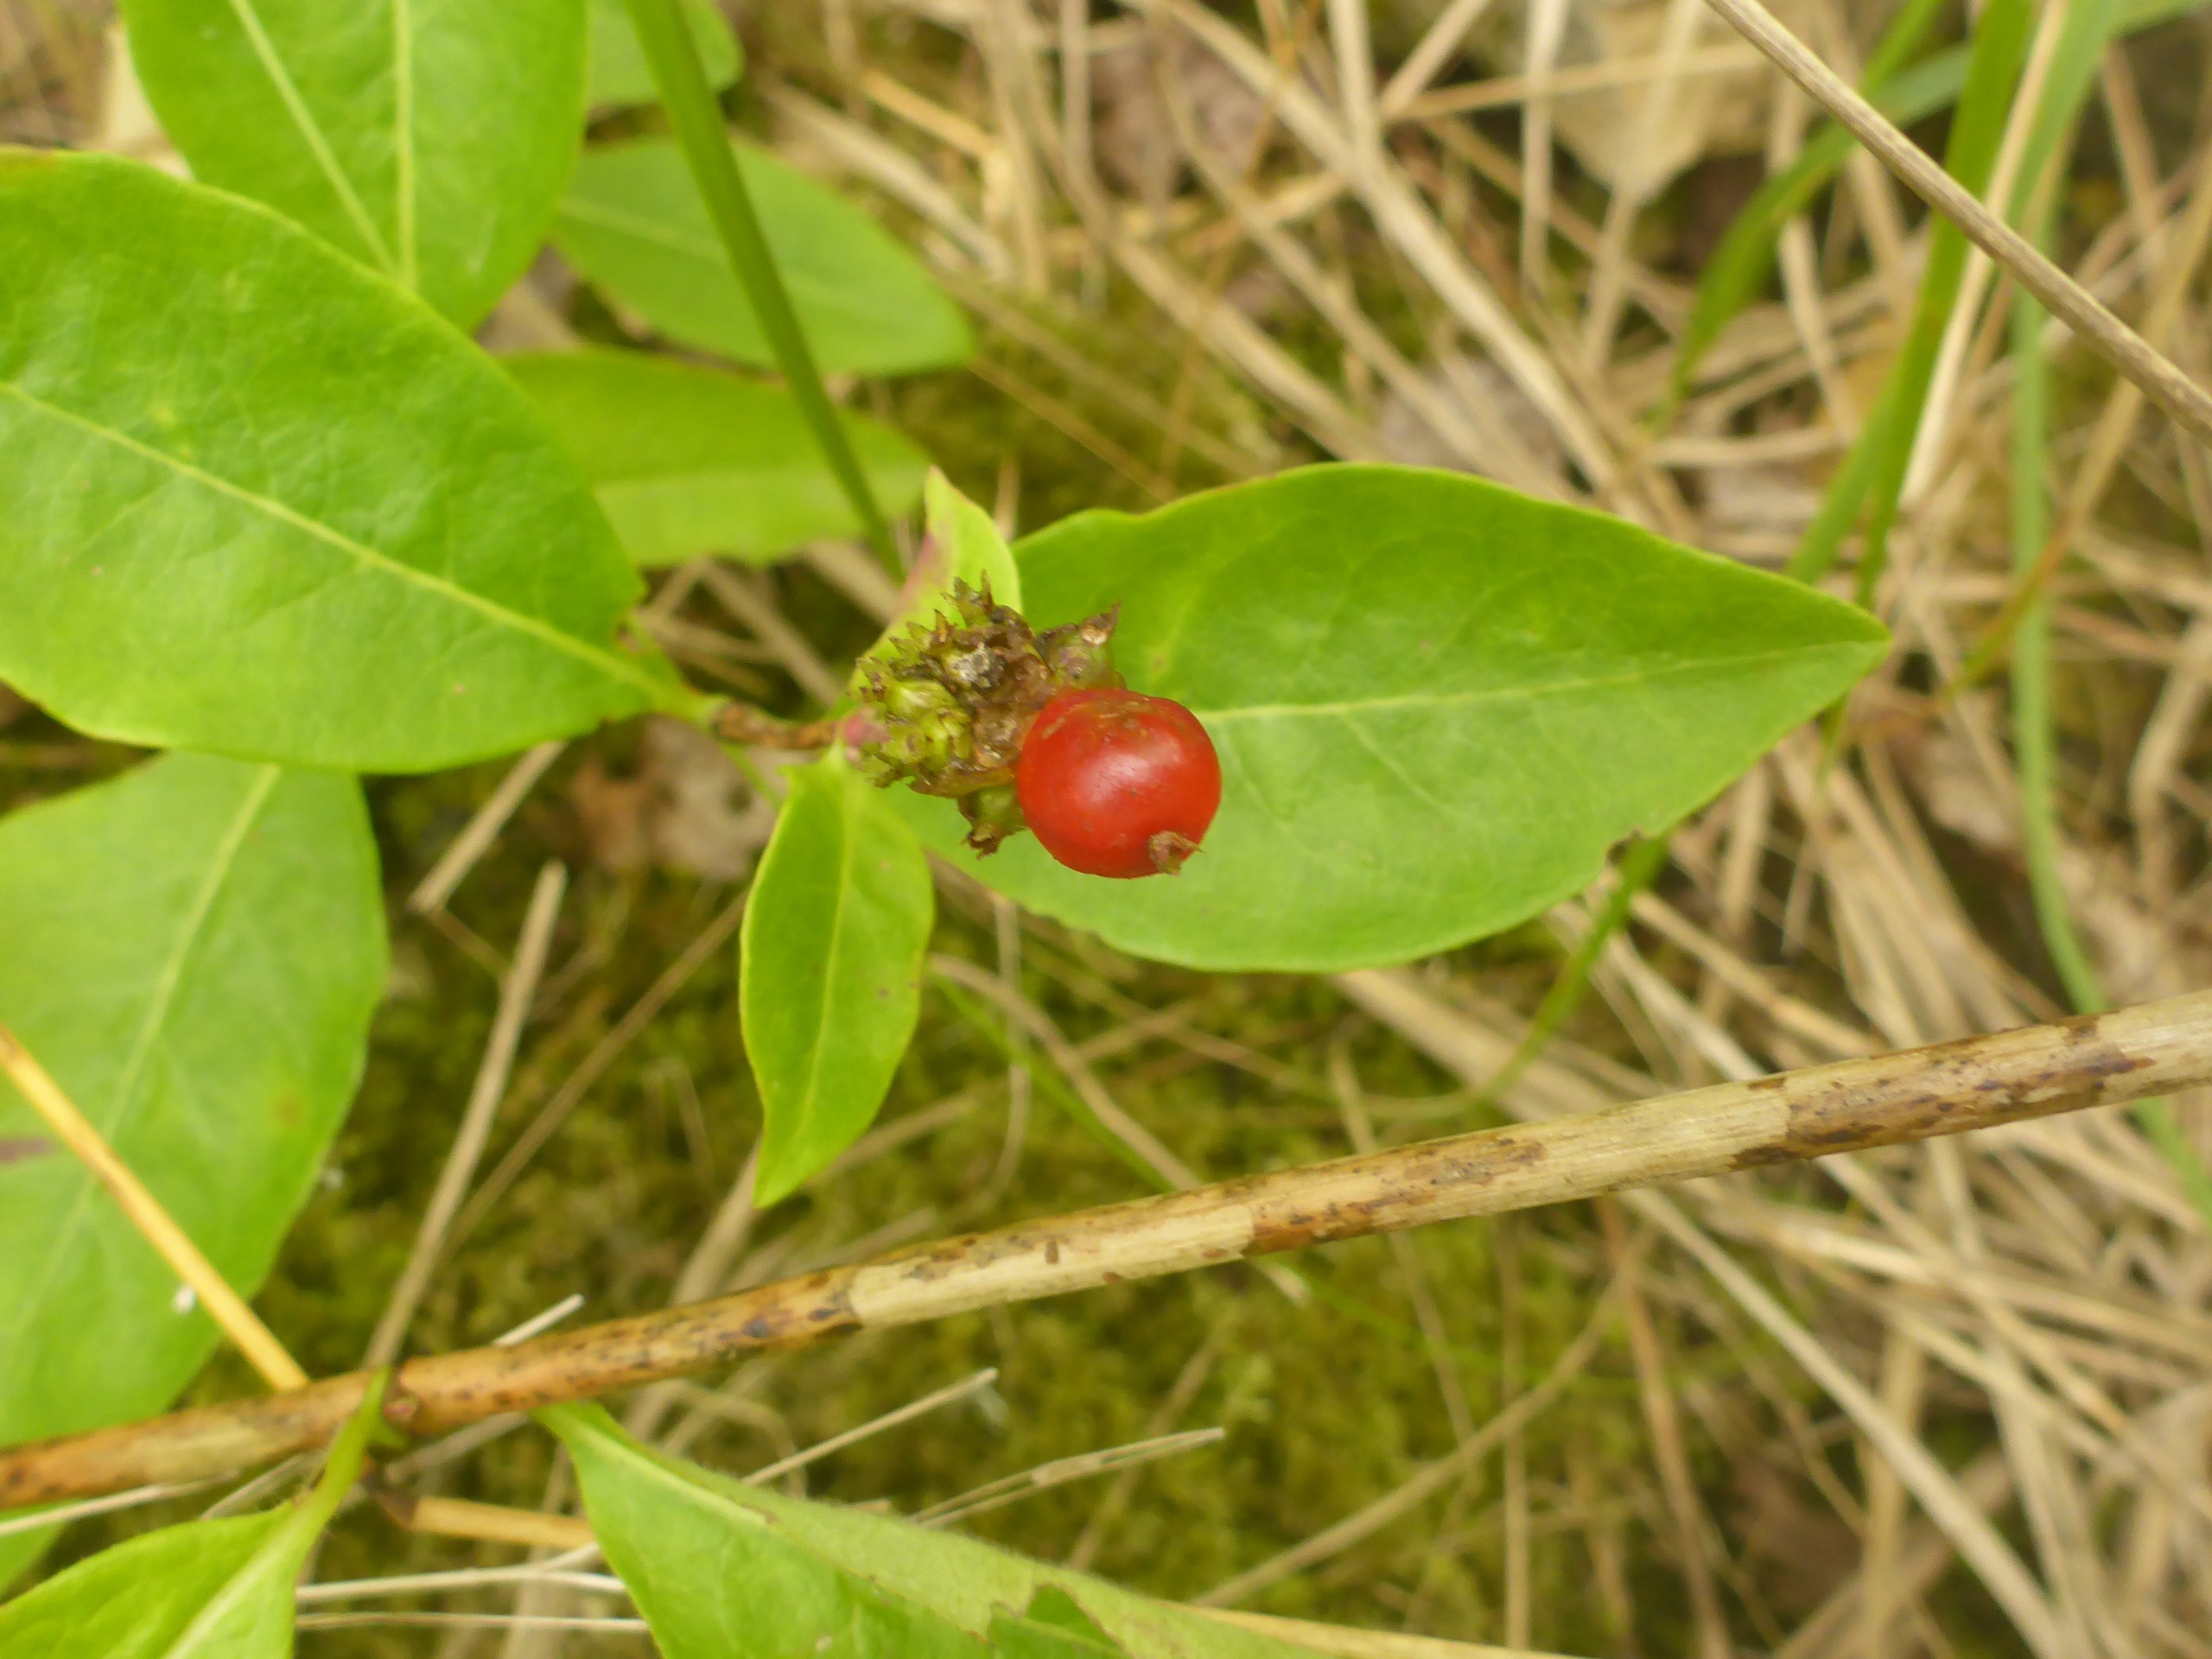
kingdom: Plantae
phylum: Tracheophyta
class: Magnoliopsida
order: Dipsacales
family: Caprifoliaceae
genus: Lonicera
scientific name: Lonicera periclymenum
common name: Almindelig gedeblad
